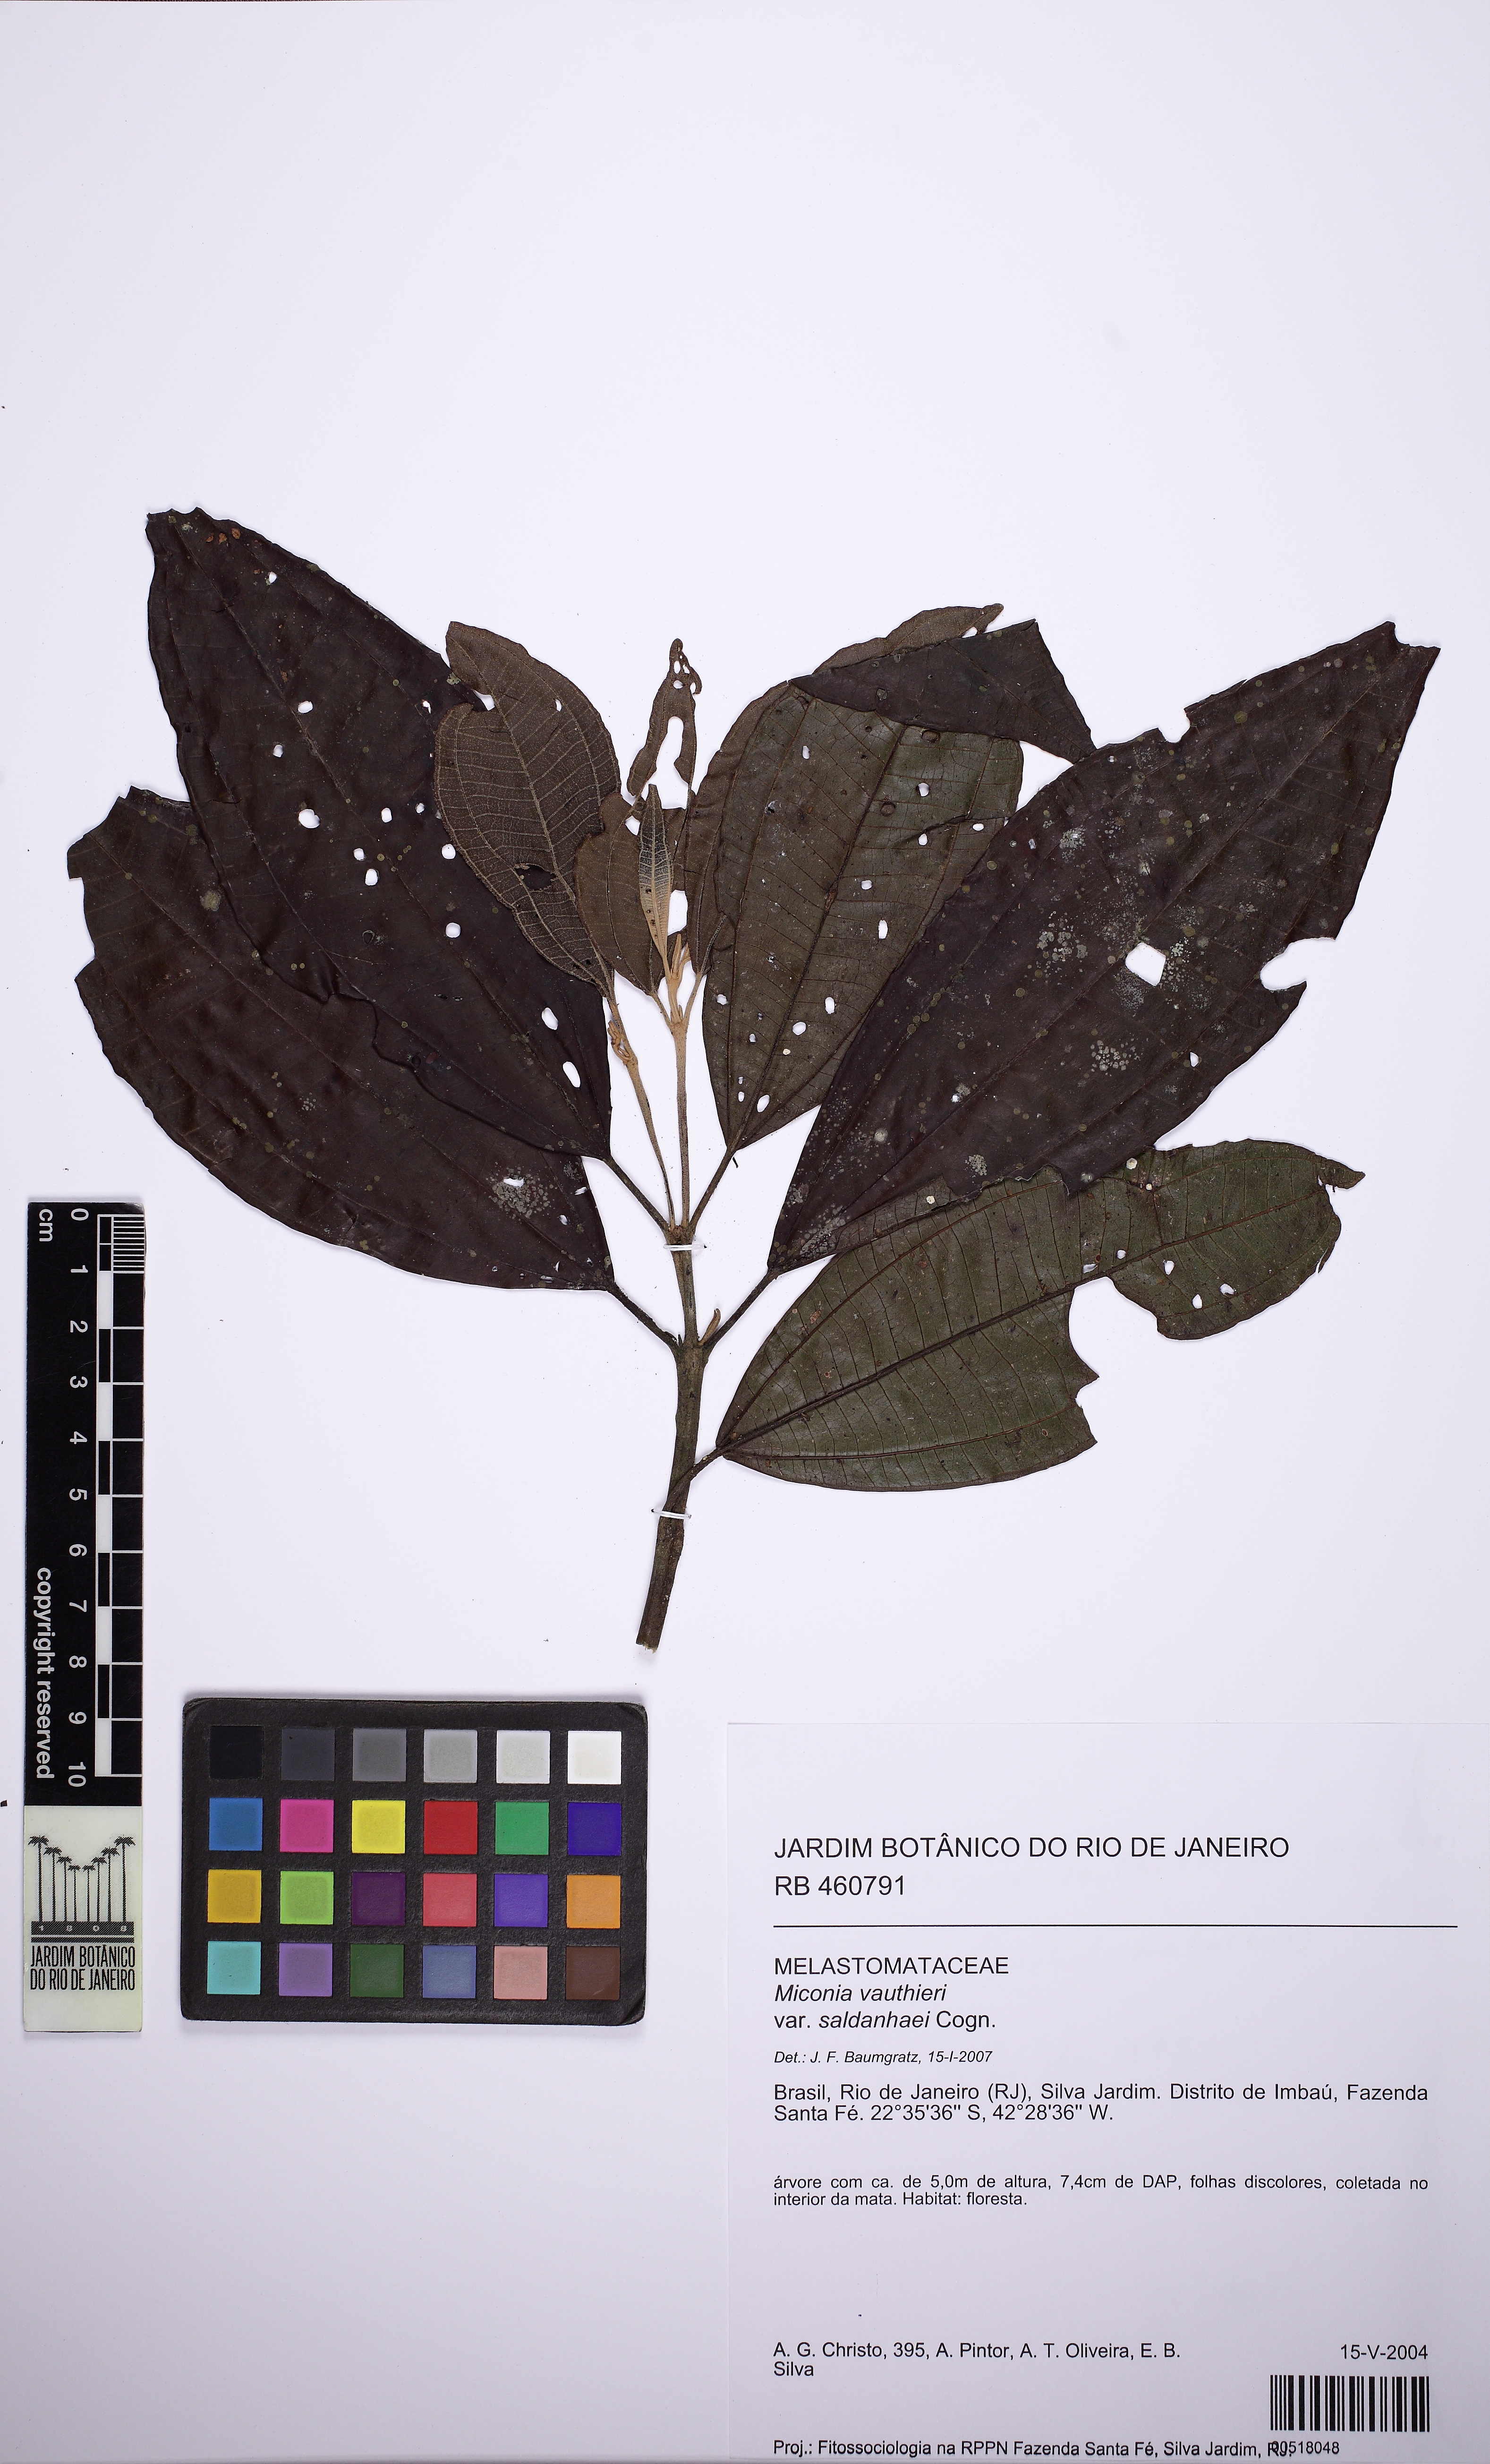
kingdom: Plantae
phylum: Tracheophyta
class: Magnoliopsida
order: Myrtales
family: Melastomataceae
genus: Miconia
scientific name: Miconia valtheri
